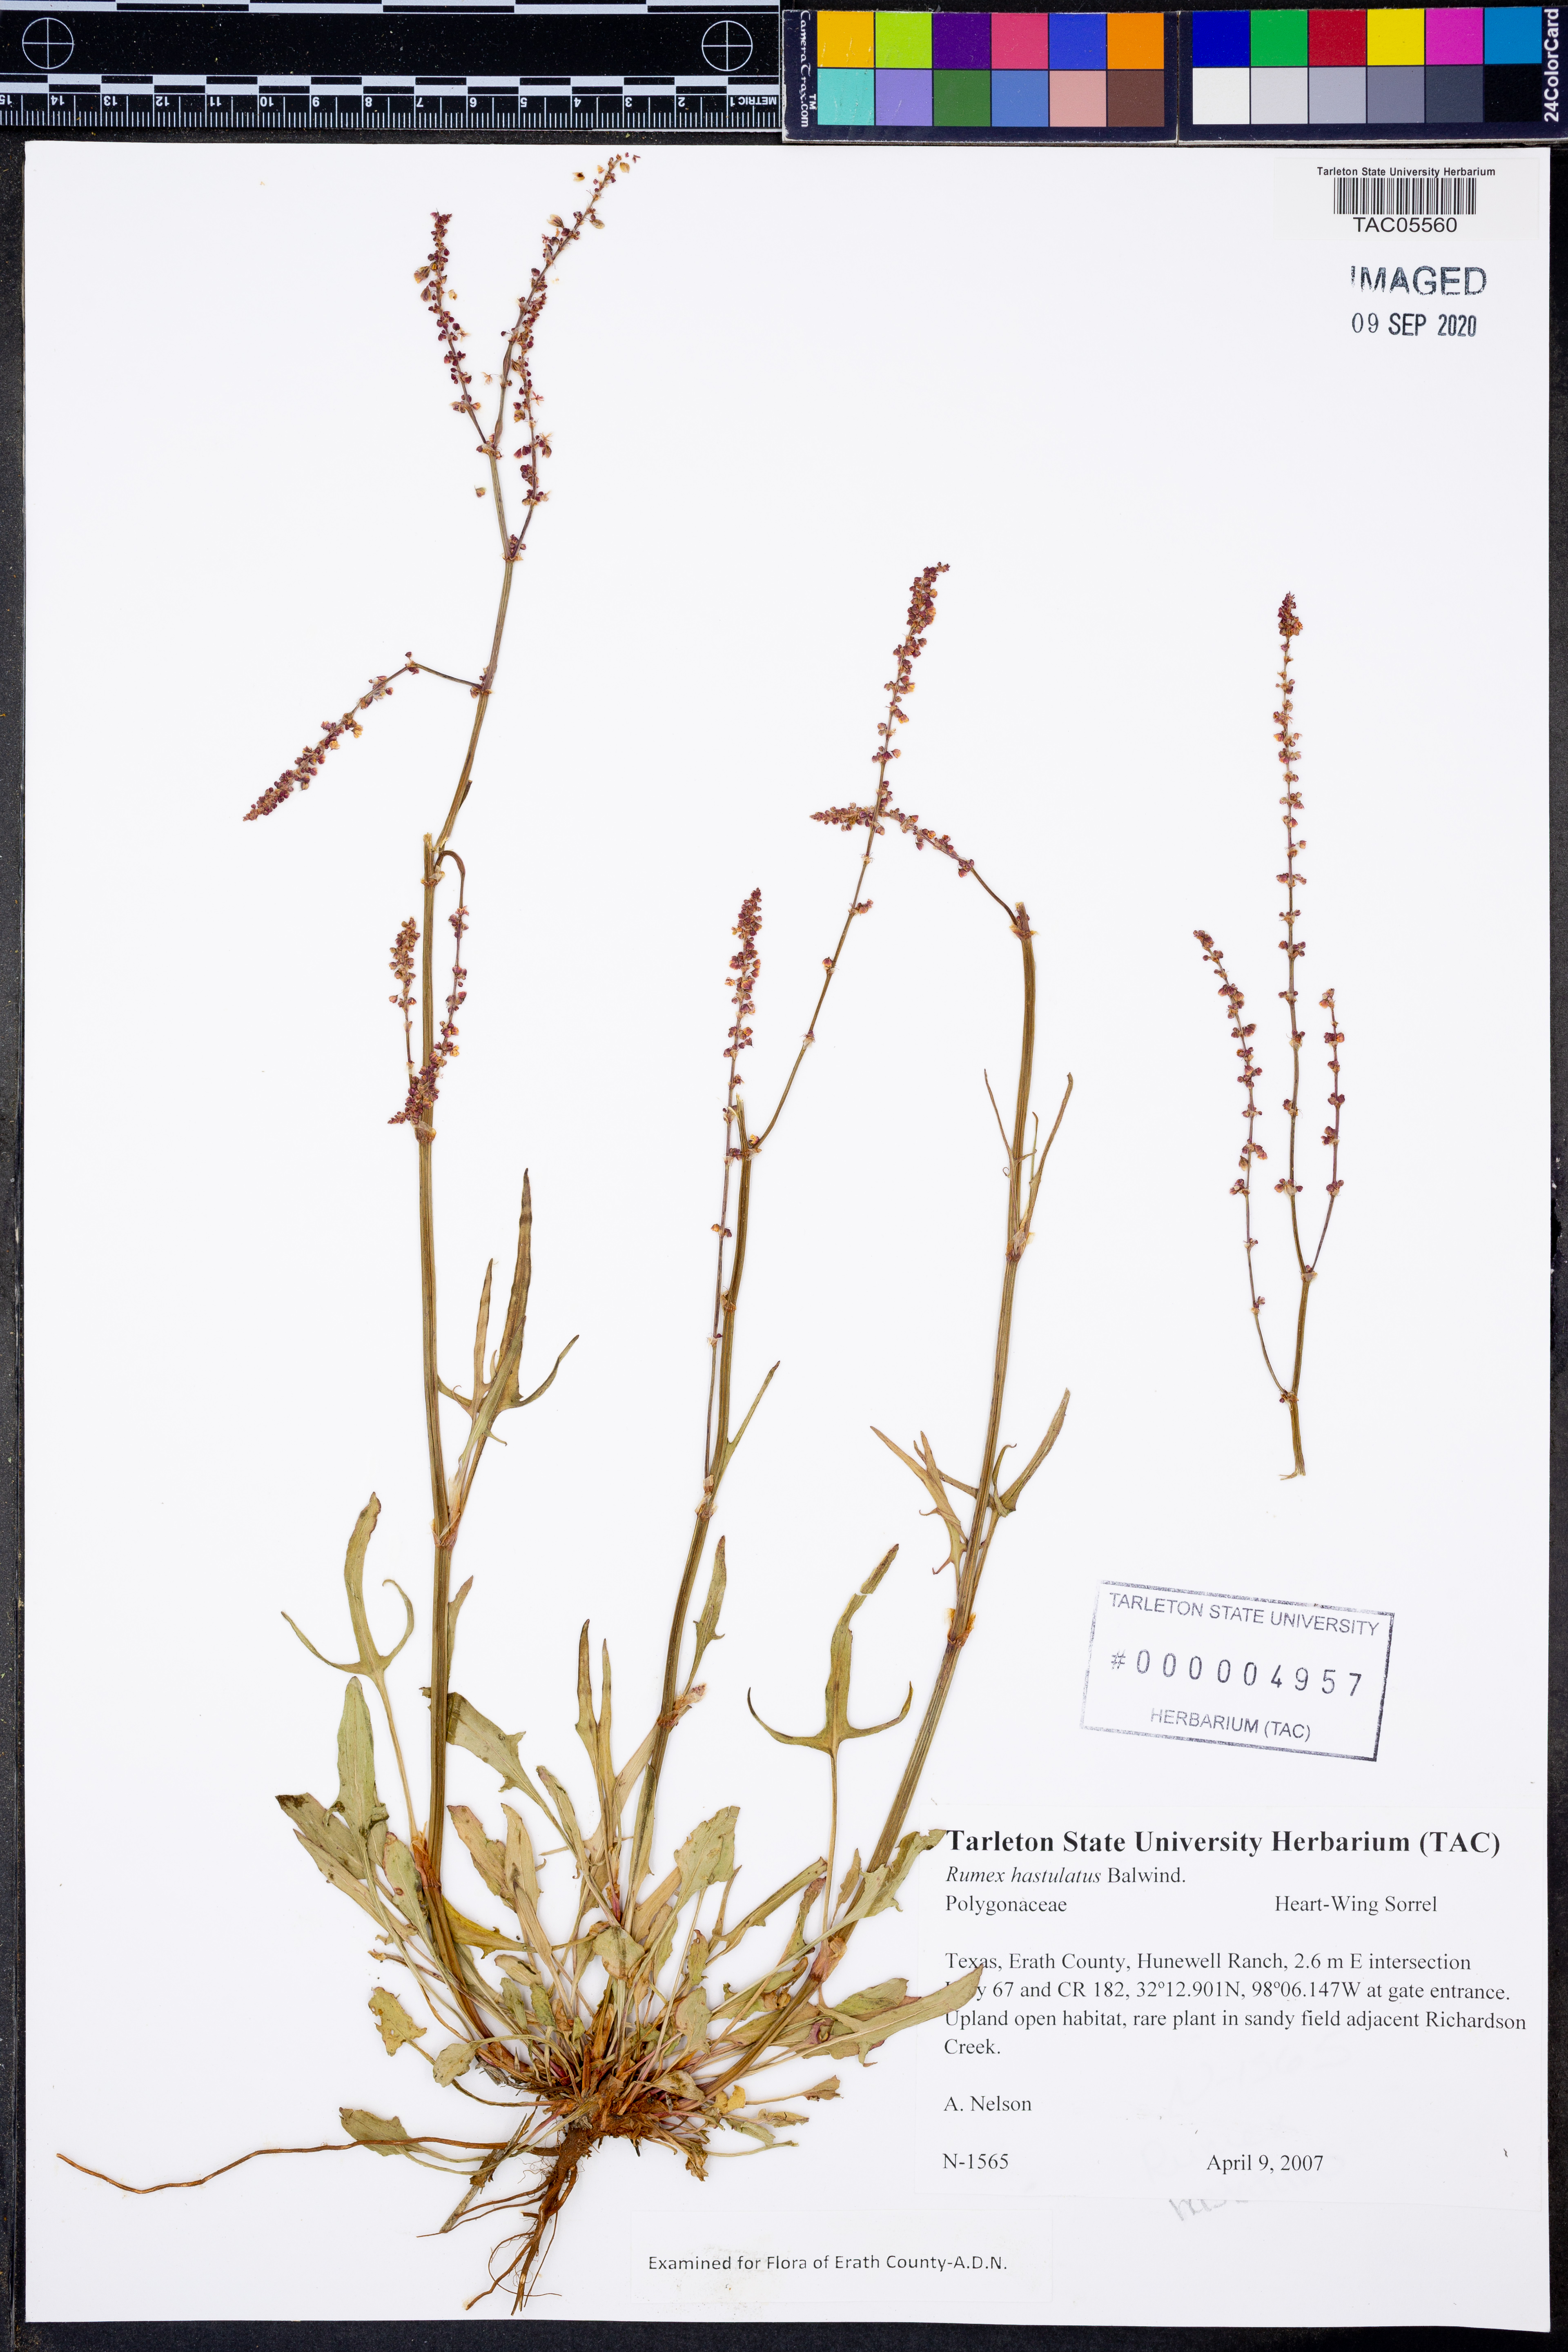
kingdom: Plantae
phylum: Tracheophyta
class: Magnoliopsida
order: Caryophyllales
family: Polygonaceae
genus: Rumex
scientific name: Rumex hastatulus
